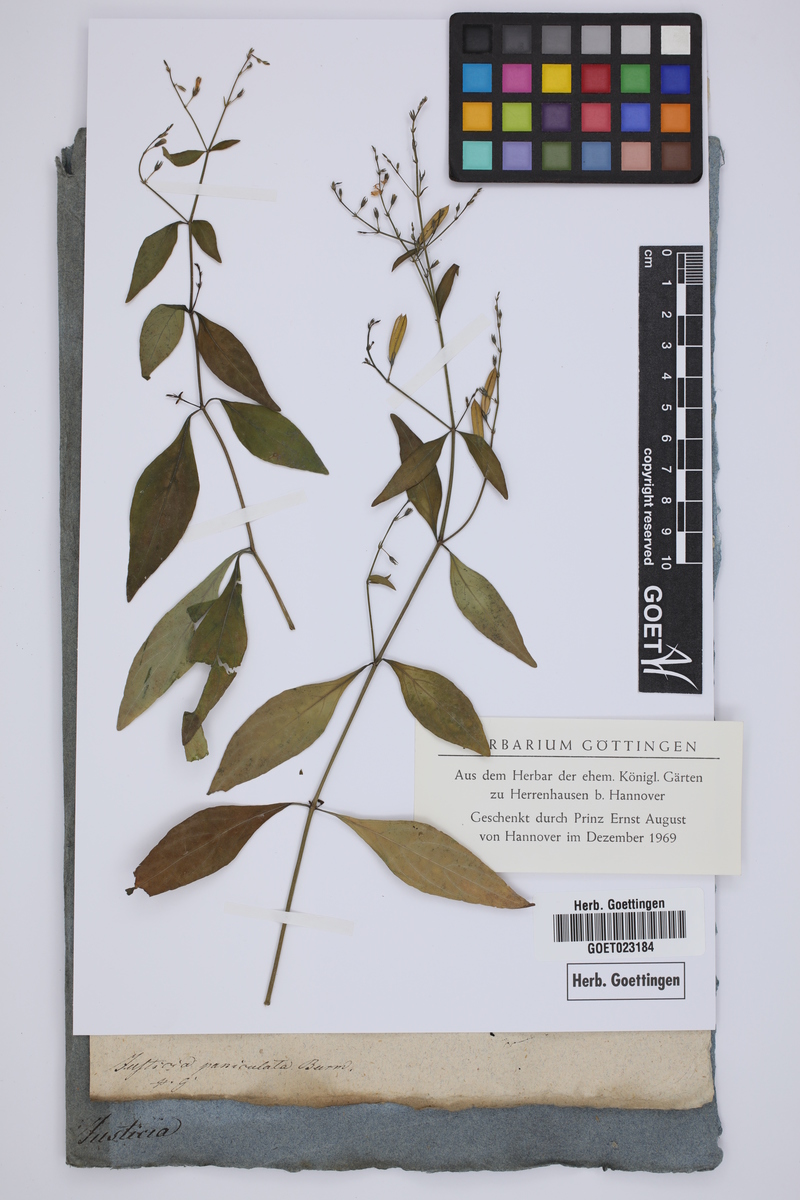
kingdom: Plantae
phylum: Tracheophyta
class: Magnoliopsida
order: Lamiales
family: Acanthaceae
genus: Andrographis
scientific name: Andrographis paniculata
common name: Green chireta
